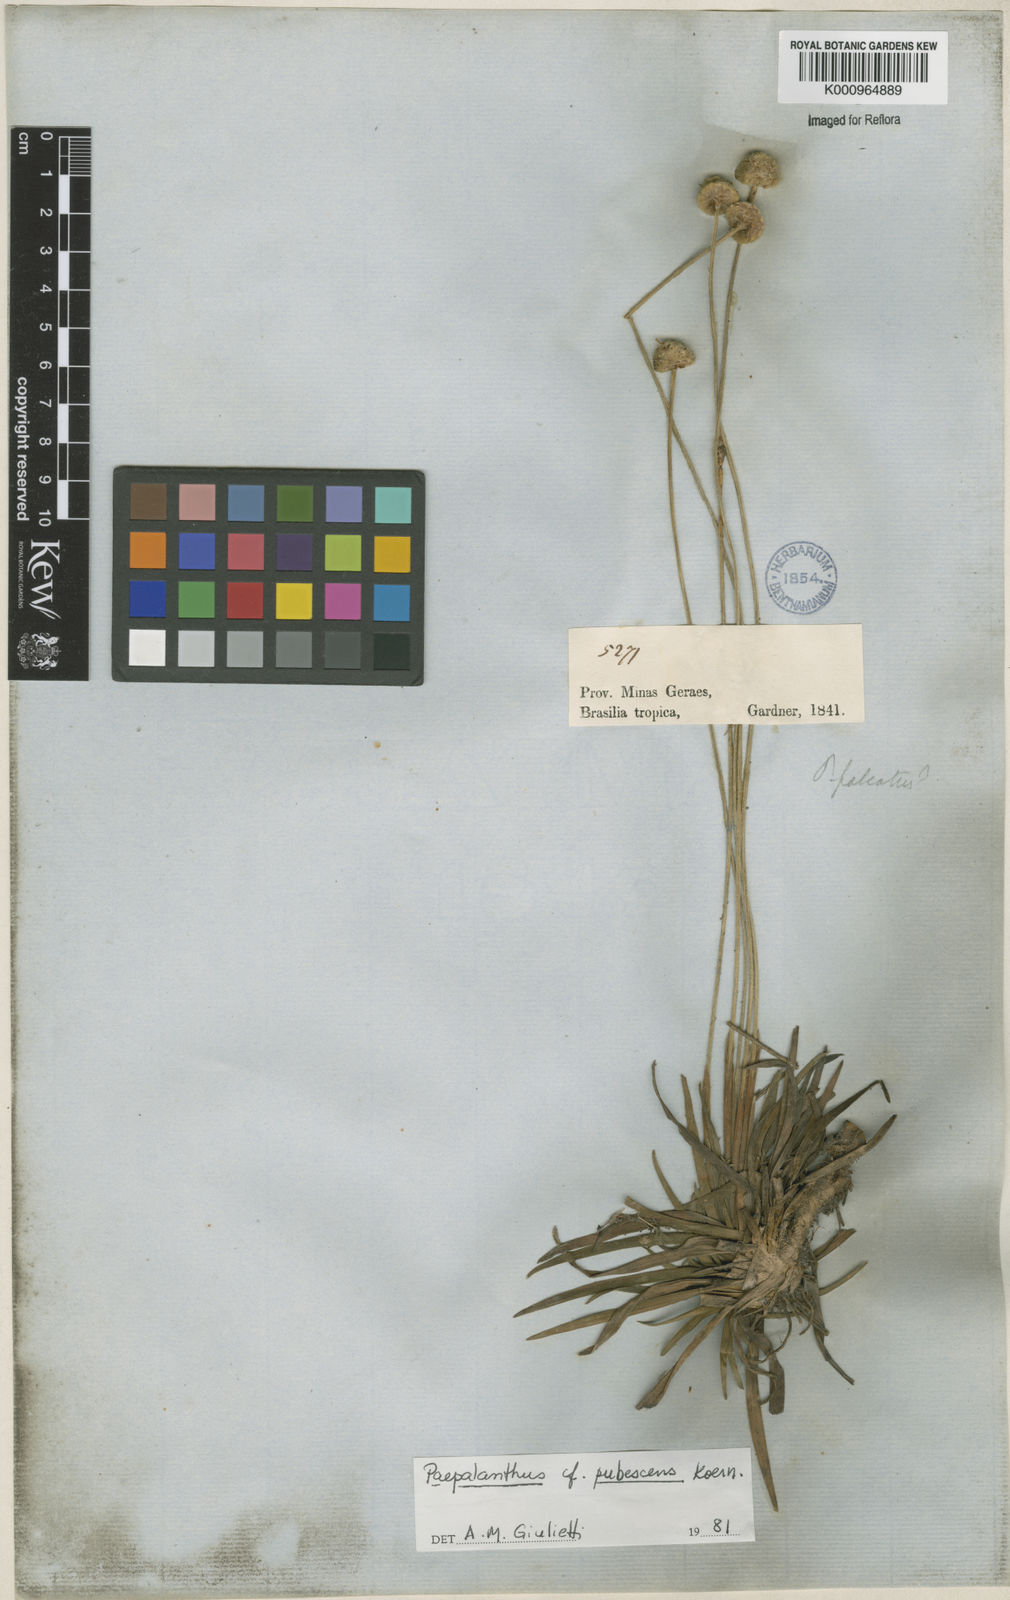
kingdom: Plantae
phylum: Tracheophyta
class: Liliopsida
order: Poales
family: Eriocaulaceae
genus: Paepalanthus
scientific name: Paepalanthus
